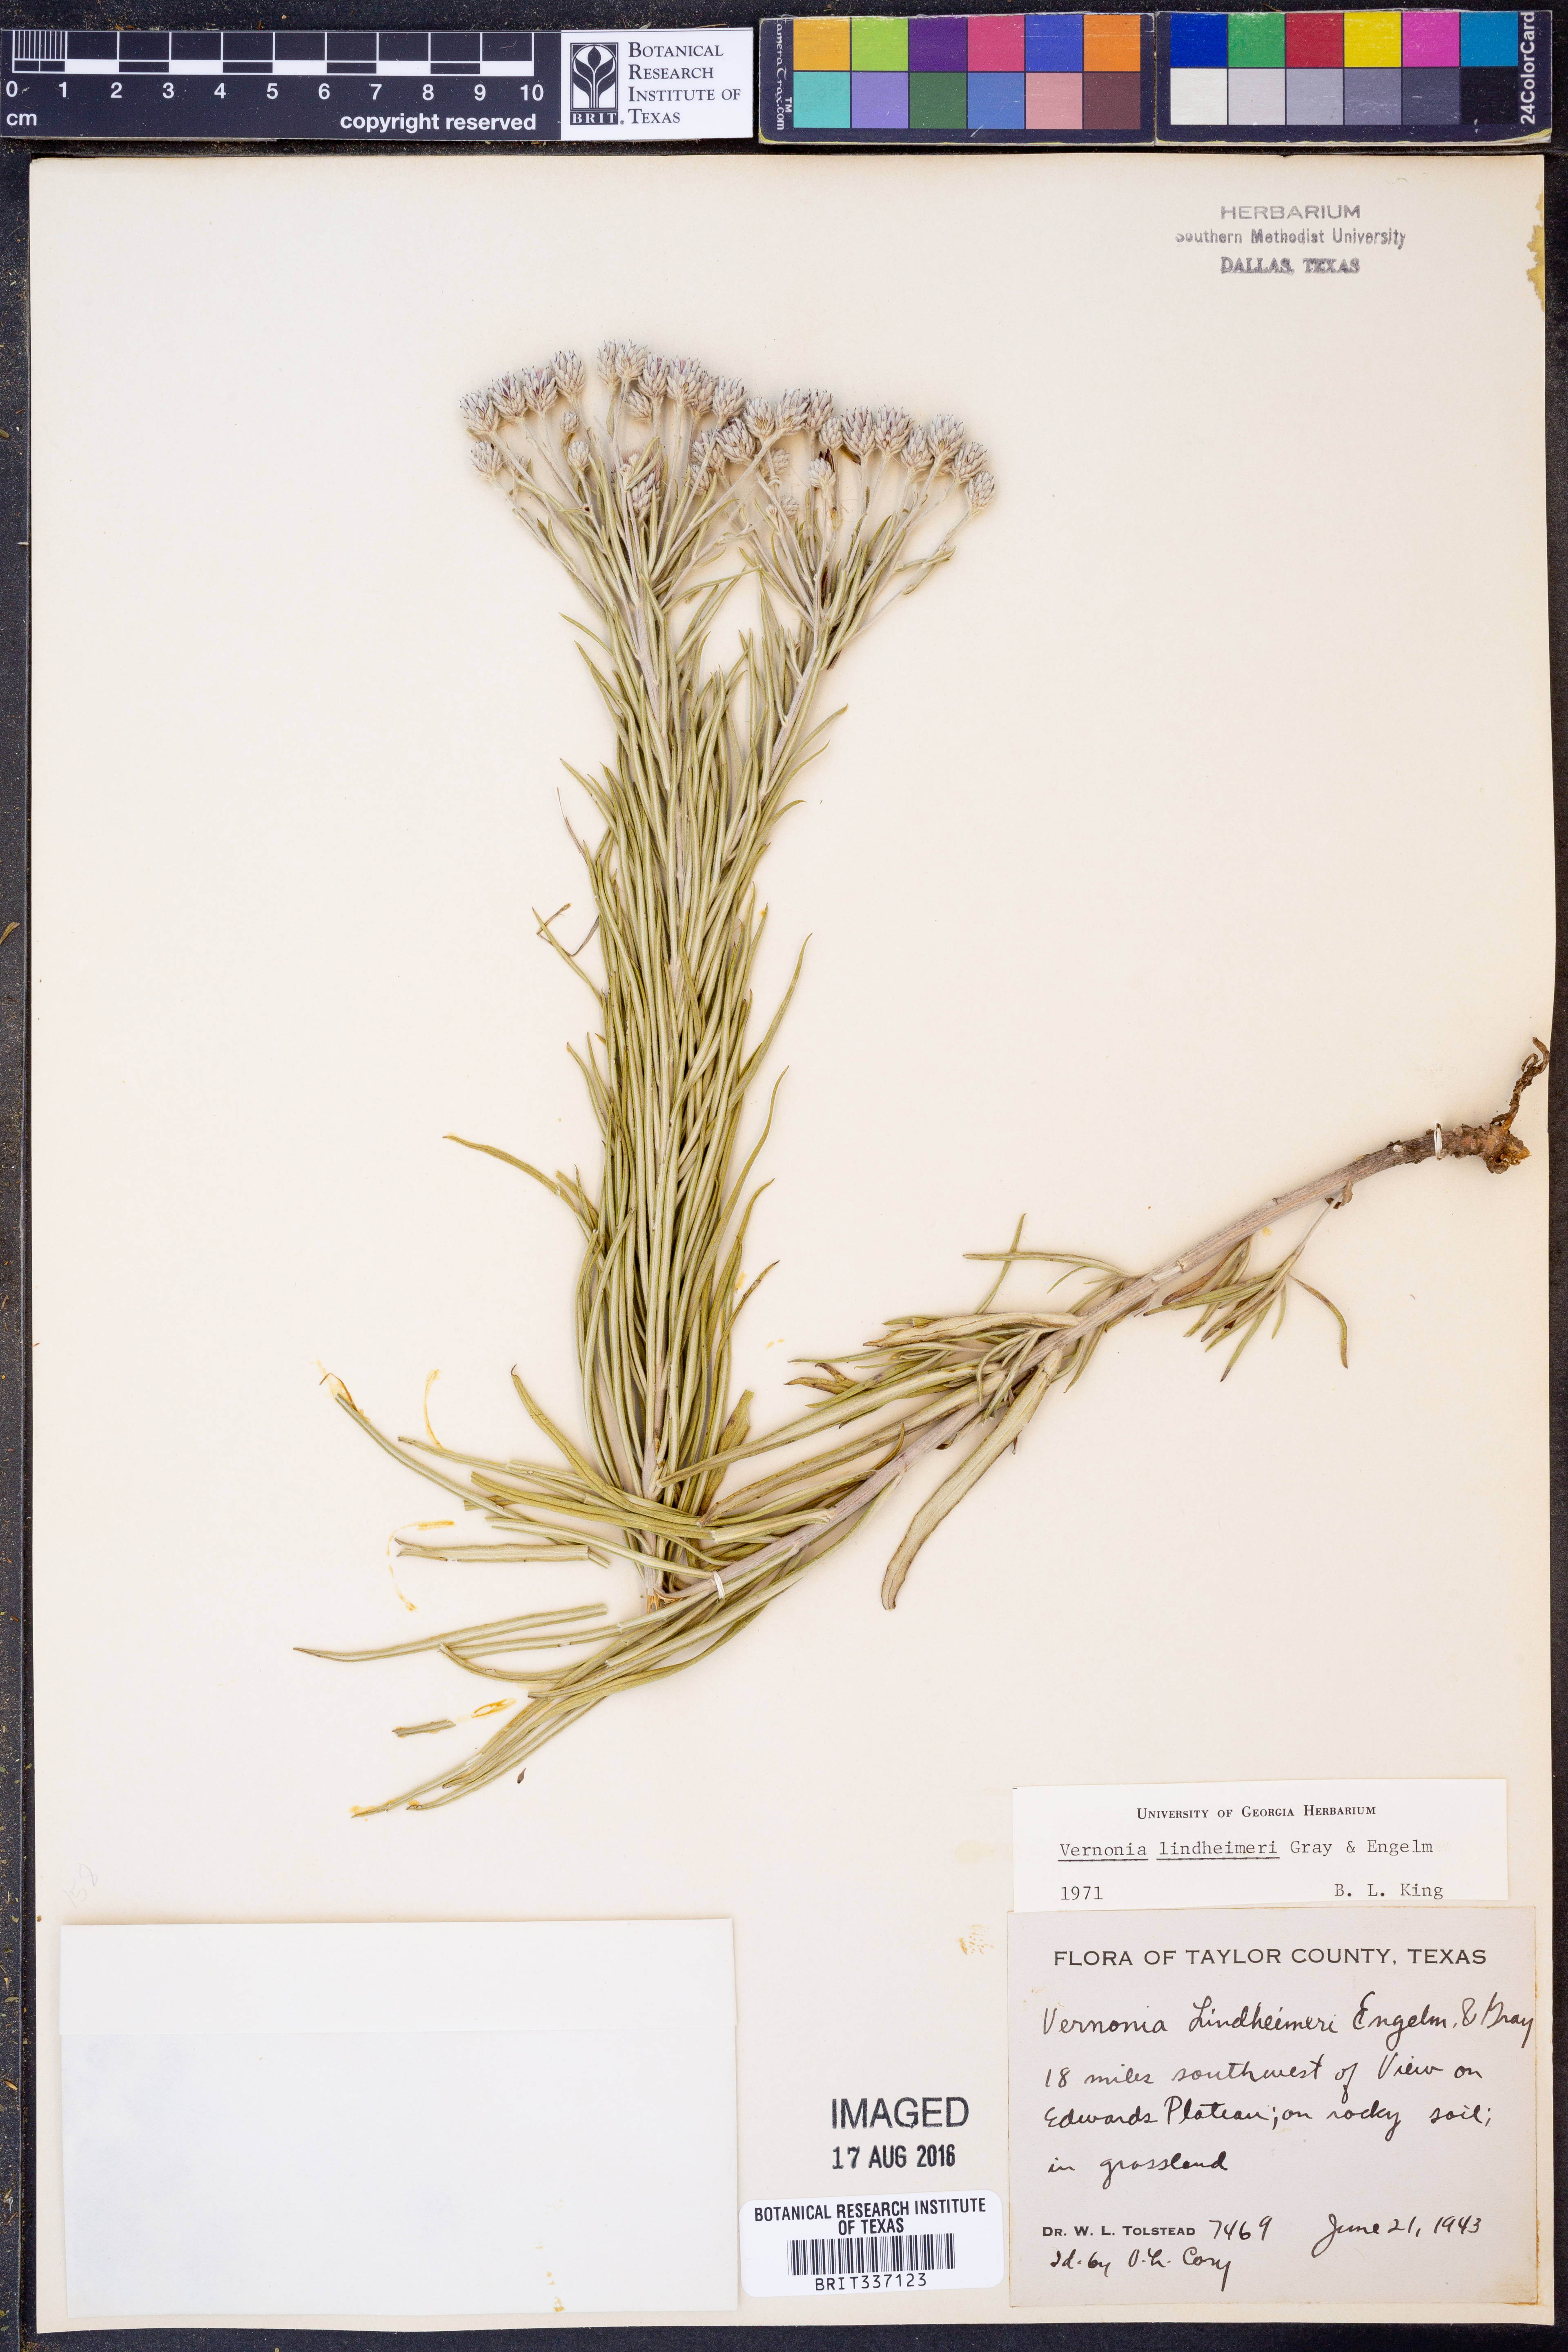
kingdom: Plantae
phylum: Tracheophyta
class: Magnoliopsida
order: Asterales
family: Asteraceae
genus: Vernonia
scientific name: Vernonia lindheimeri
